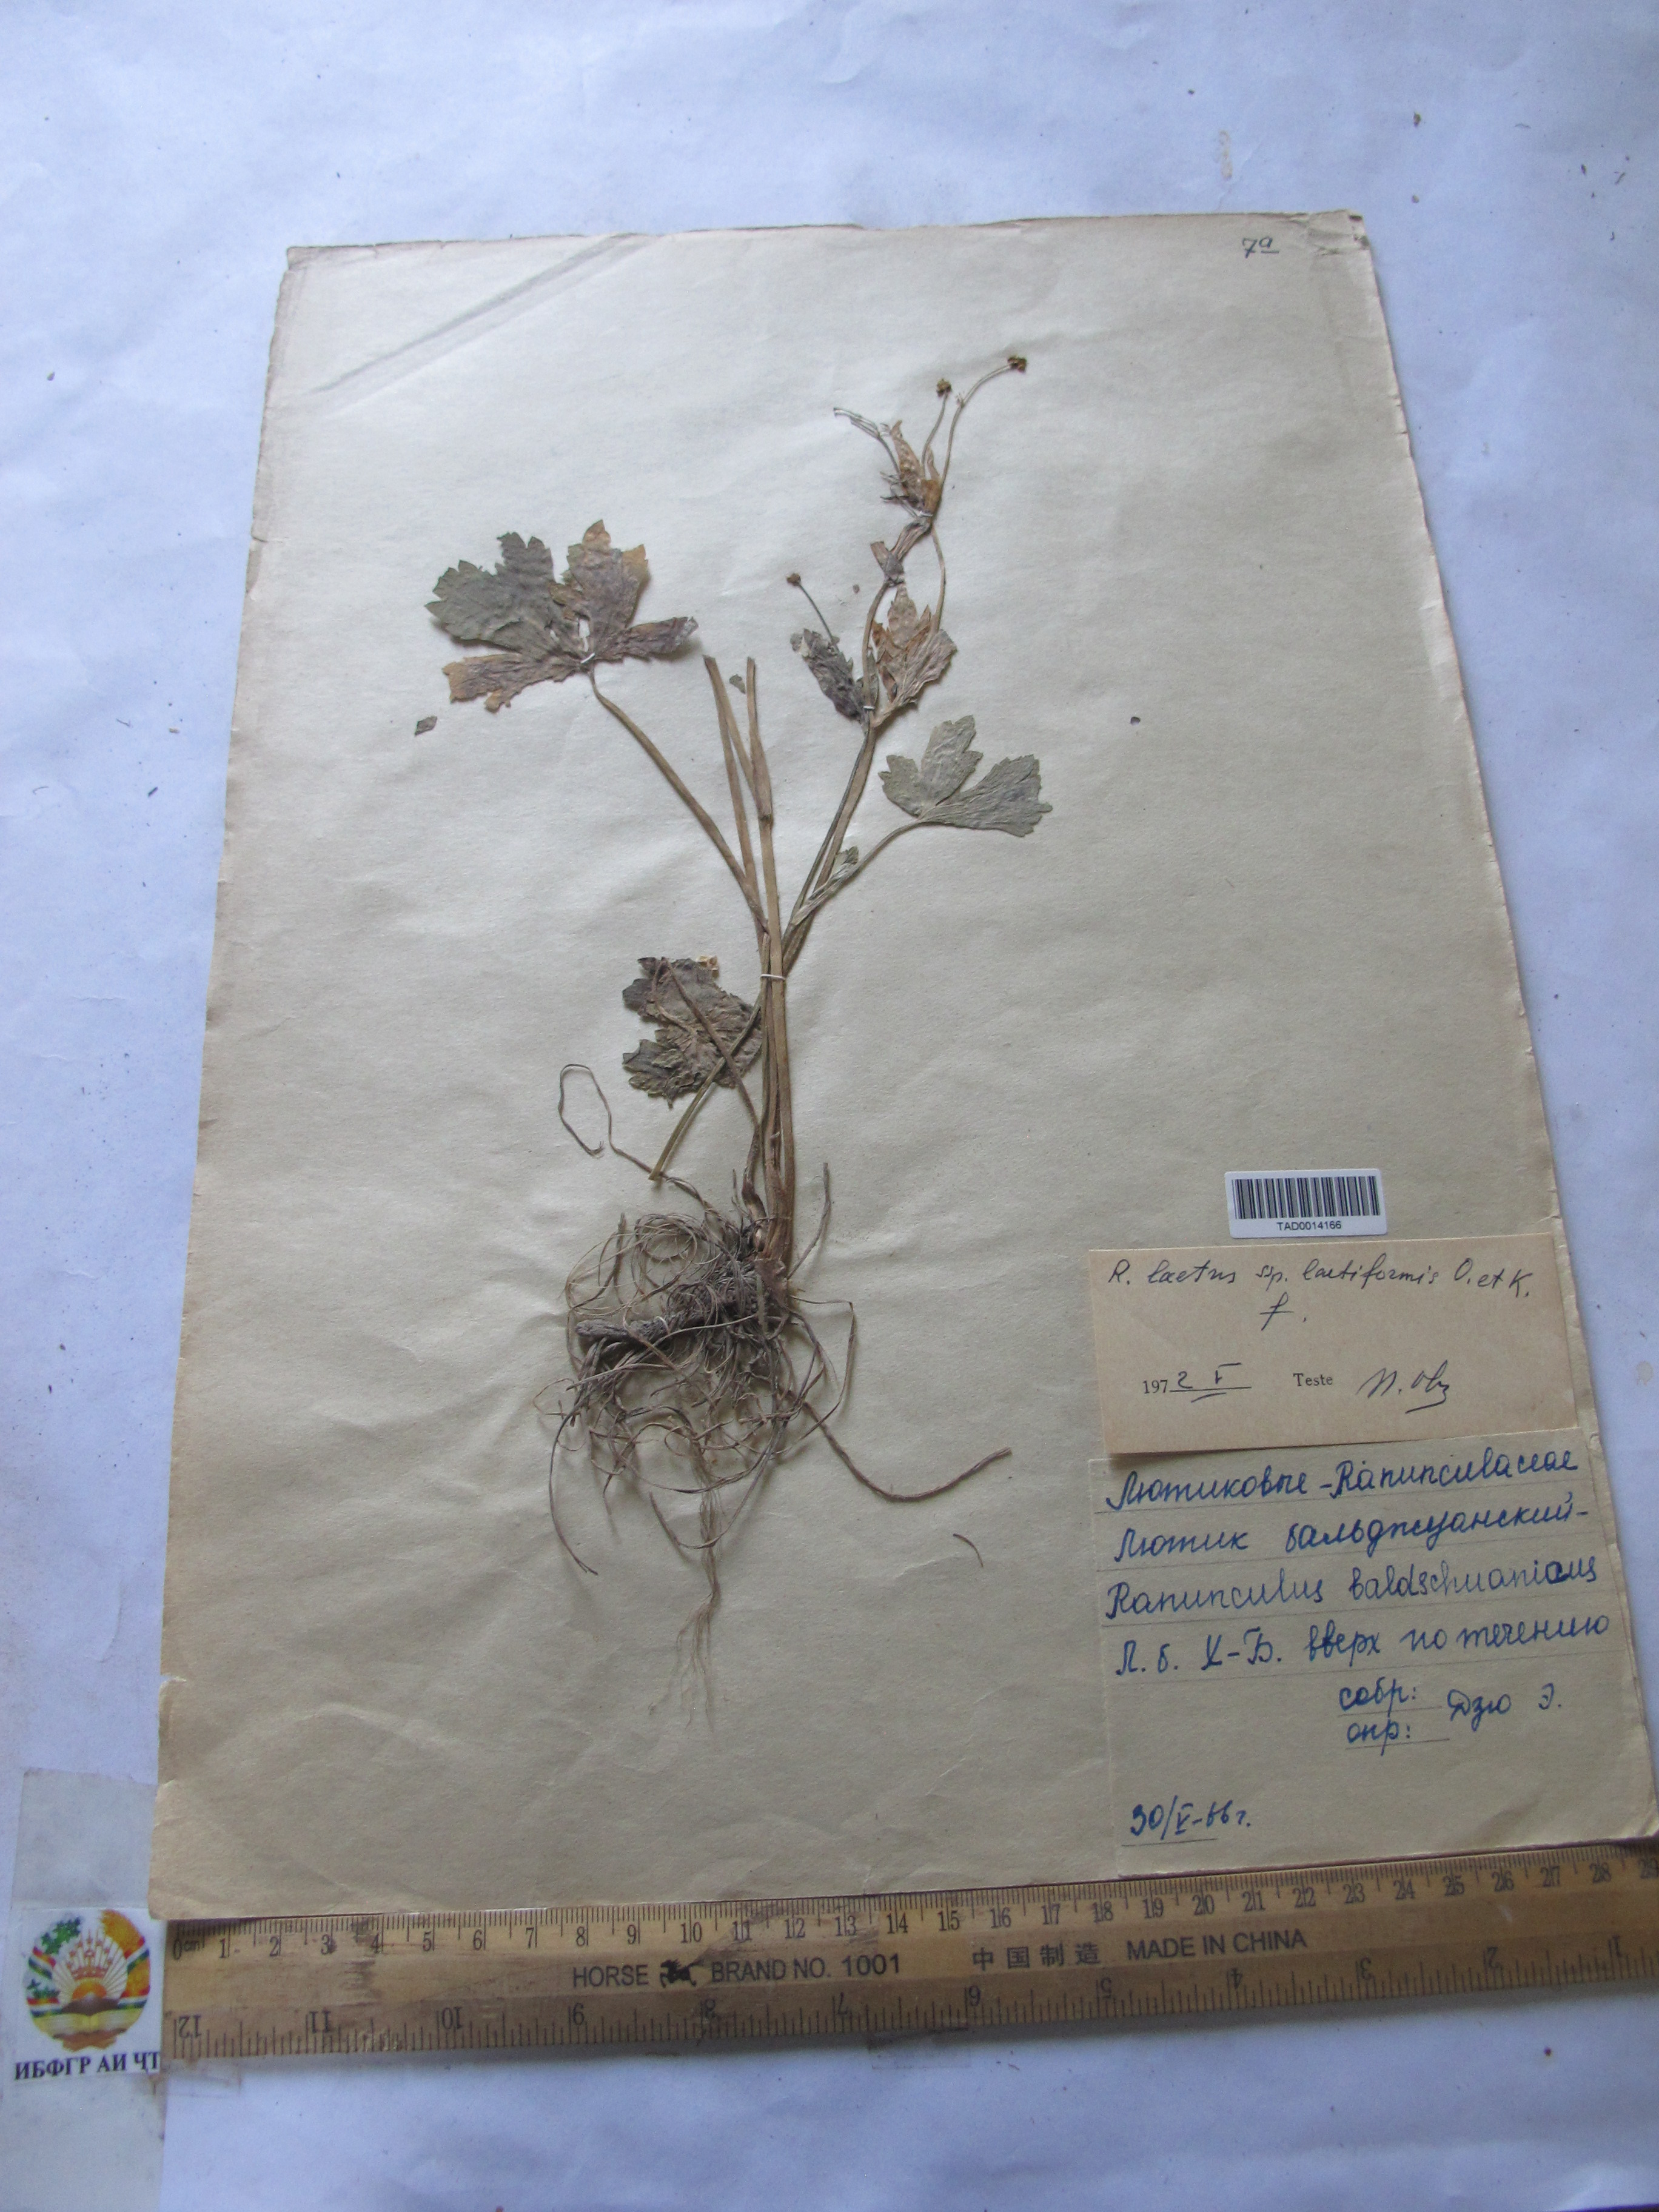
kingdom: Plantae
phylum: Tracheophyta
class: Magnoliopsida
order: Ranunculales
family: Ranunculaceae
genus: Ranunculus
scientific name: Ranunculus distans
